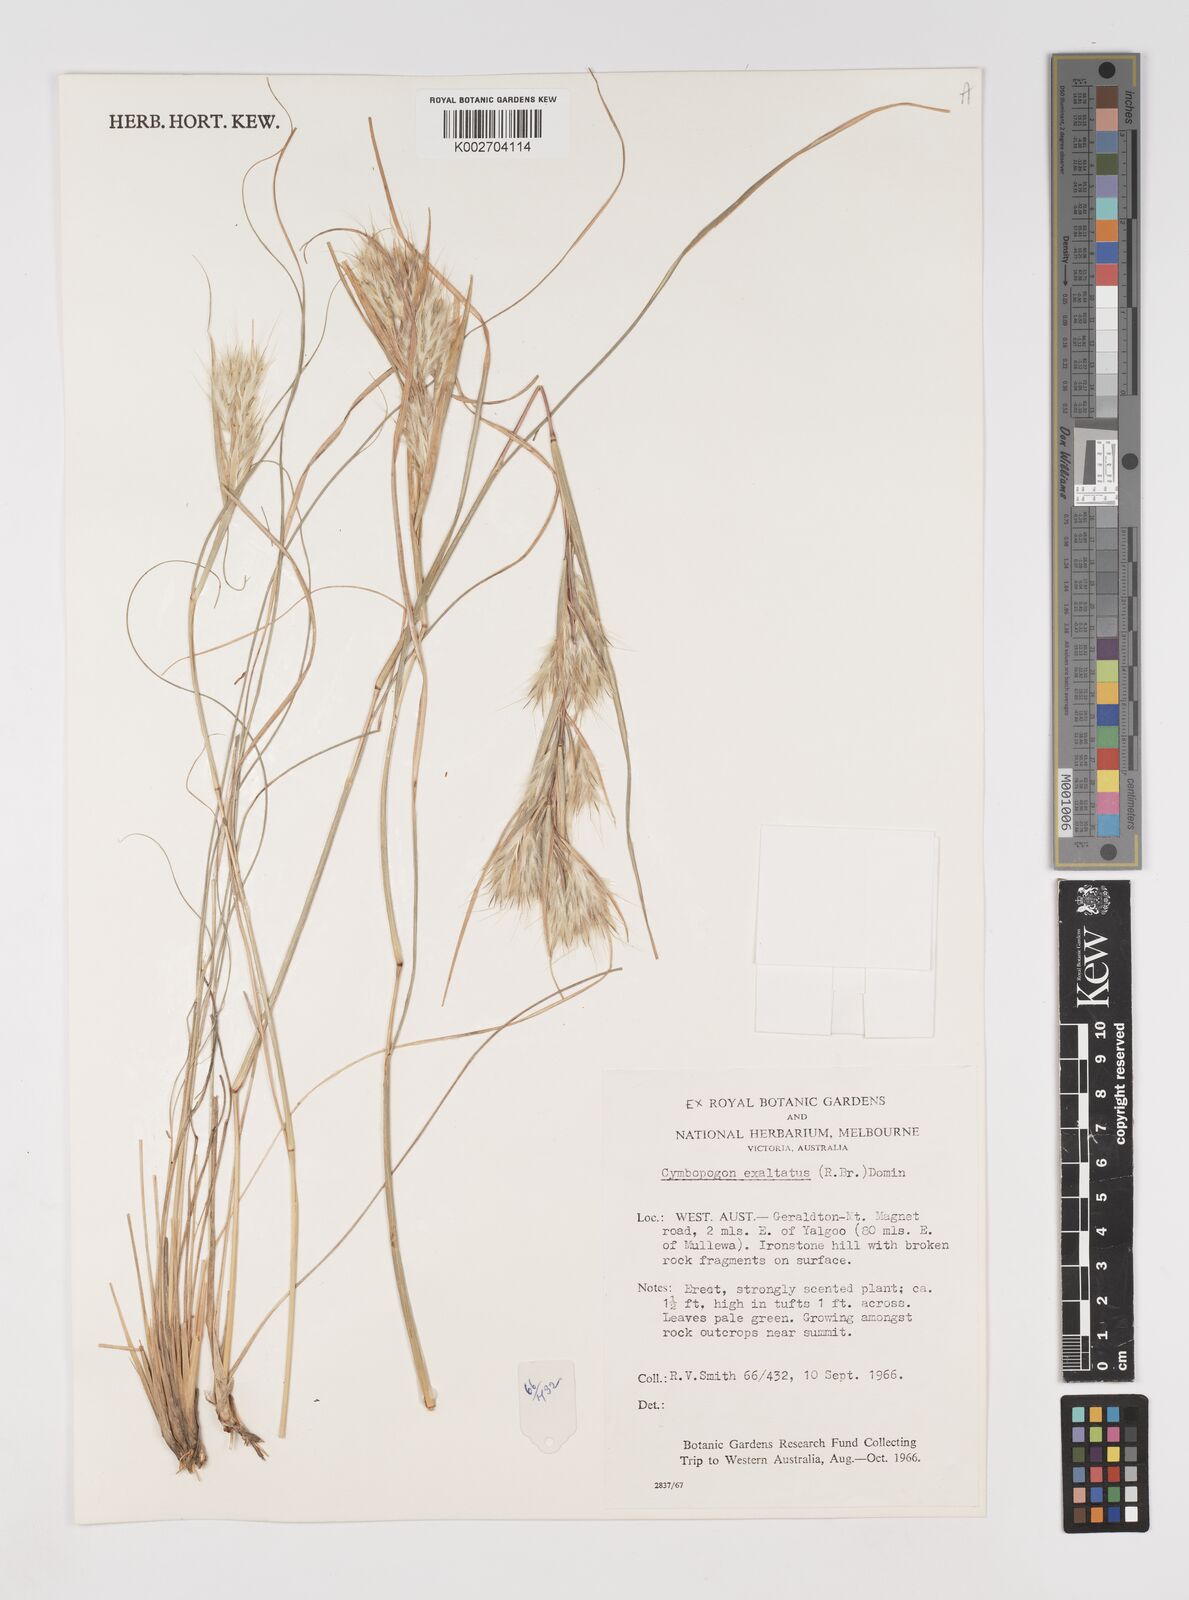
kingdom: Plantae
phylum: Tracheophyta
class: Liliopsida
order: Poales
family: Poaceae
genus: Cymbopogon
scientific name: Cymbopogon
